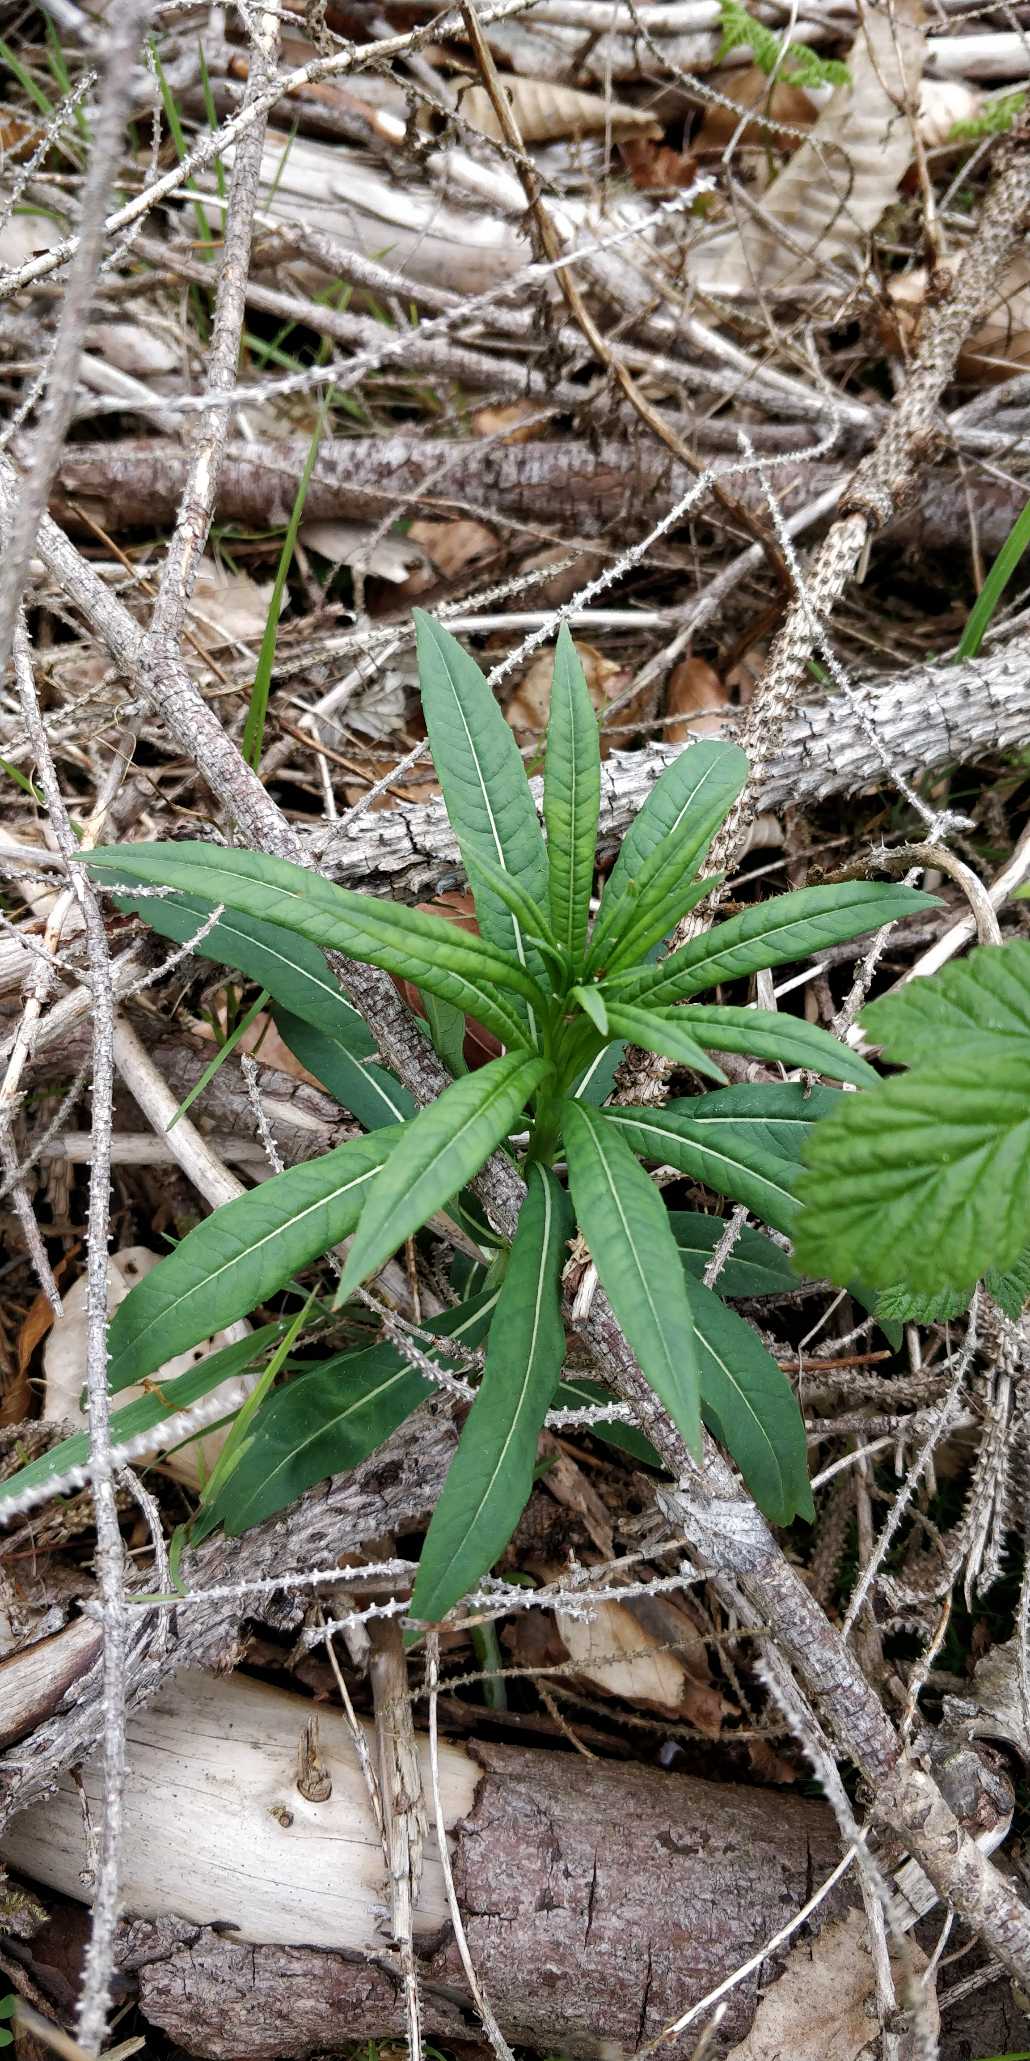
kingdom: Plantae
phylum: Tracheophyta
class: Magnoliopsida
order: Myrtales
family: Onagraceae
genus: Chamaenerion
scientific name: Chamaenerion angustifolium
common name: Gederams
